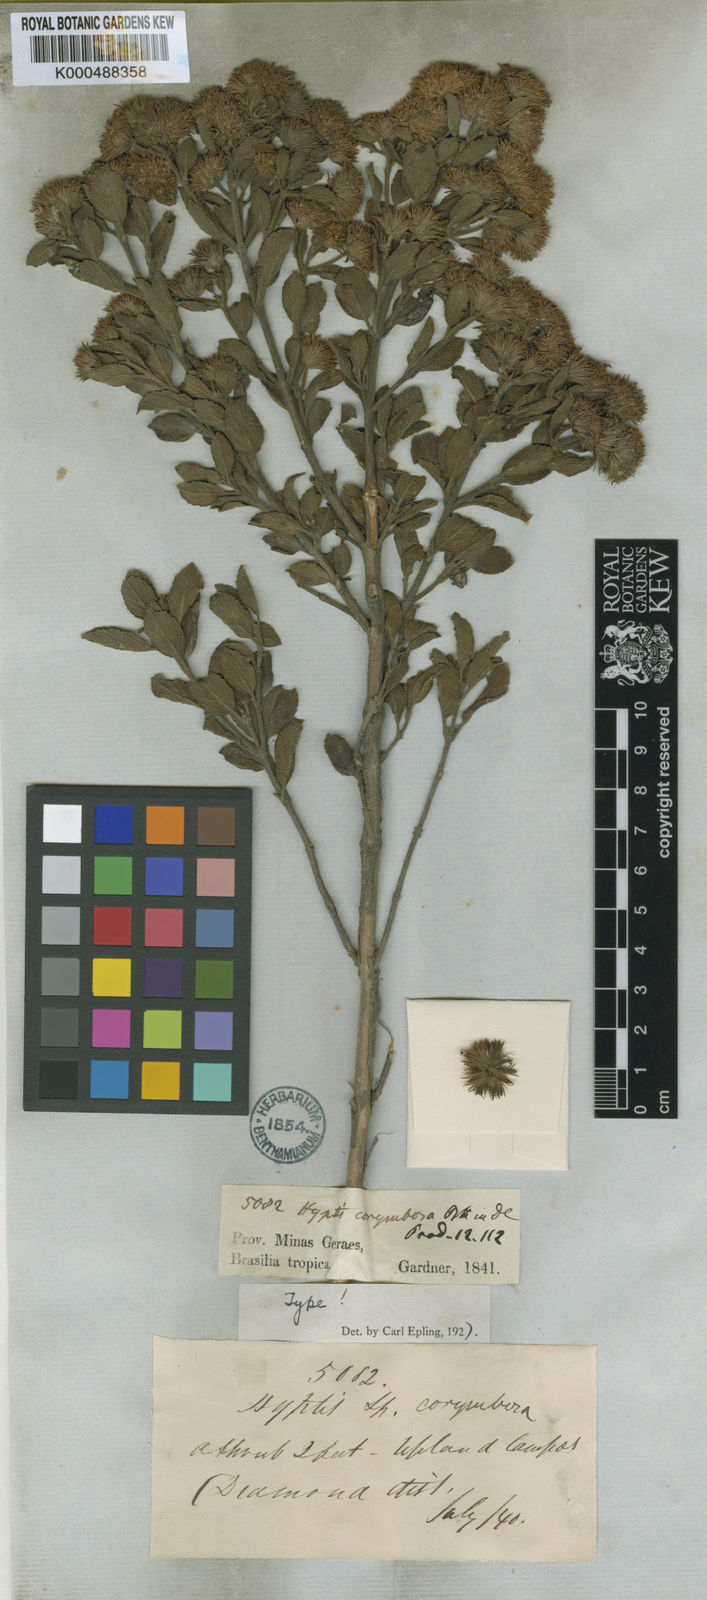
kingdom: Plantae
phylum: Tracheophyta
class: Magnoliopsida
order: Lamiales
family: Lamiaceae
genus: Hyptis
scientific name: Hyptis corymbosa
